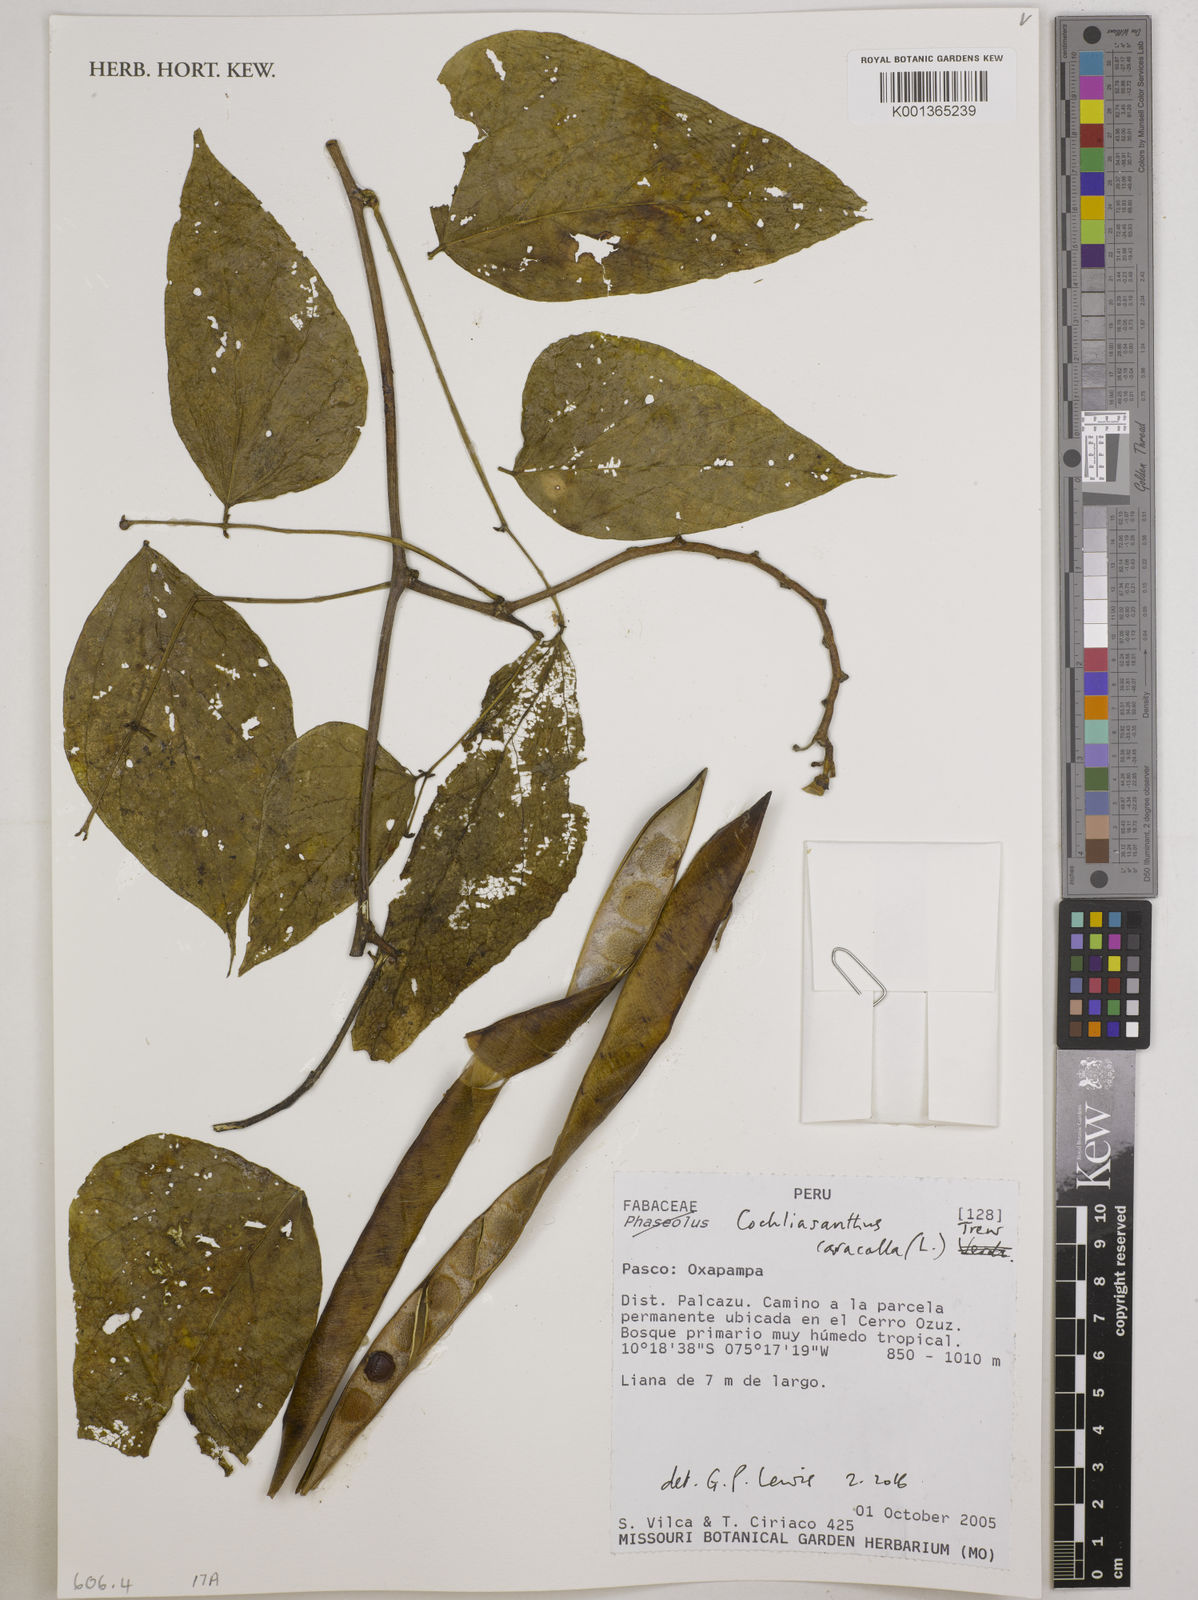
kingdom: Plantae
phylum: Tracheophyta
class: Magnoliopsida
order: Fabales
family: Fabaceae
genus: Cochliasanthus
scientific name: Cochliasanthus caracalla
